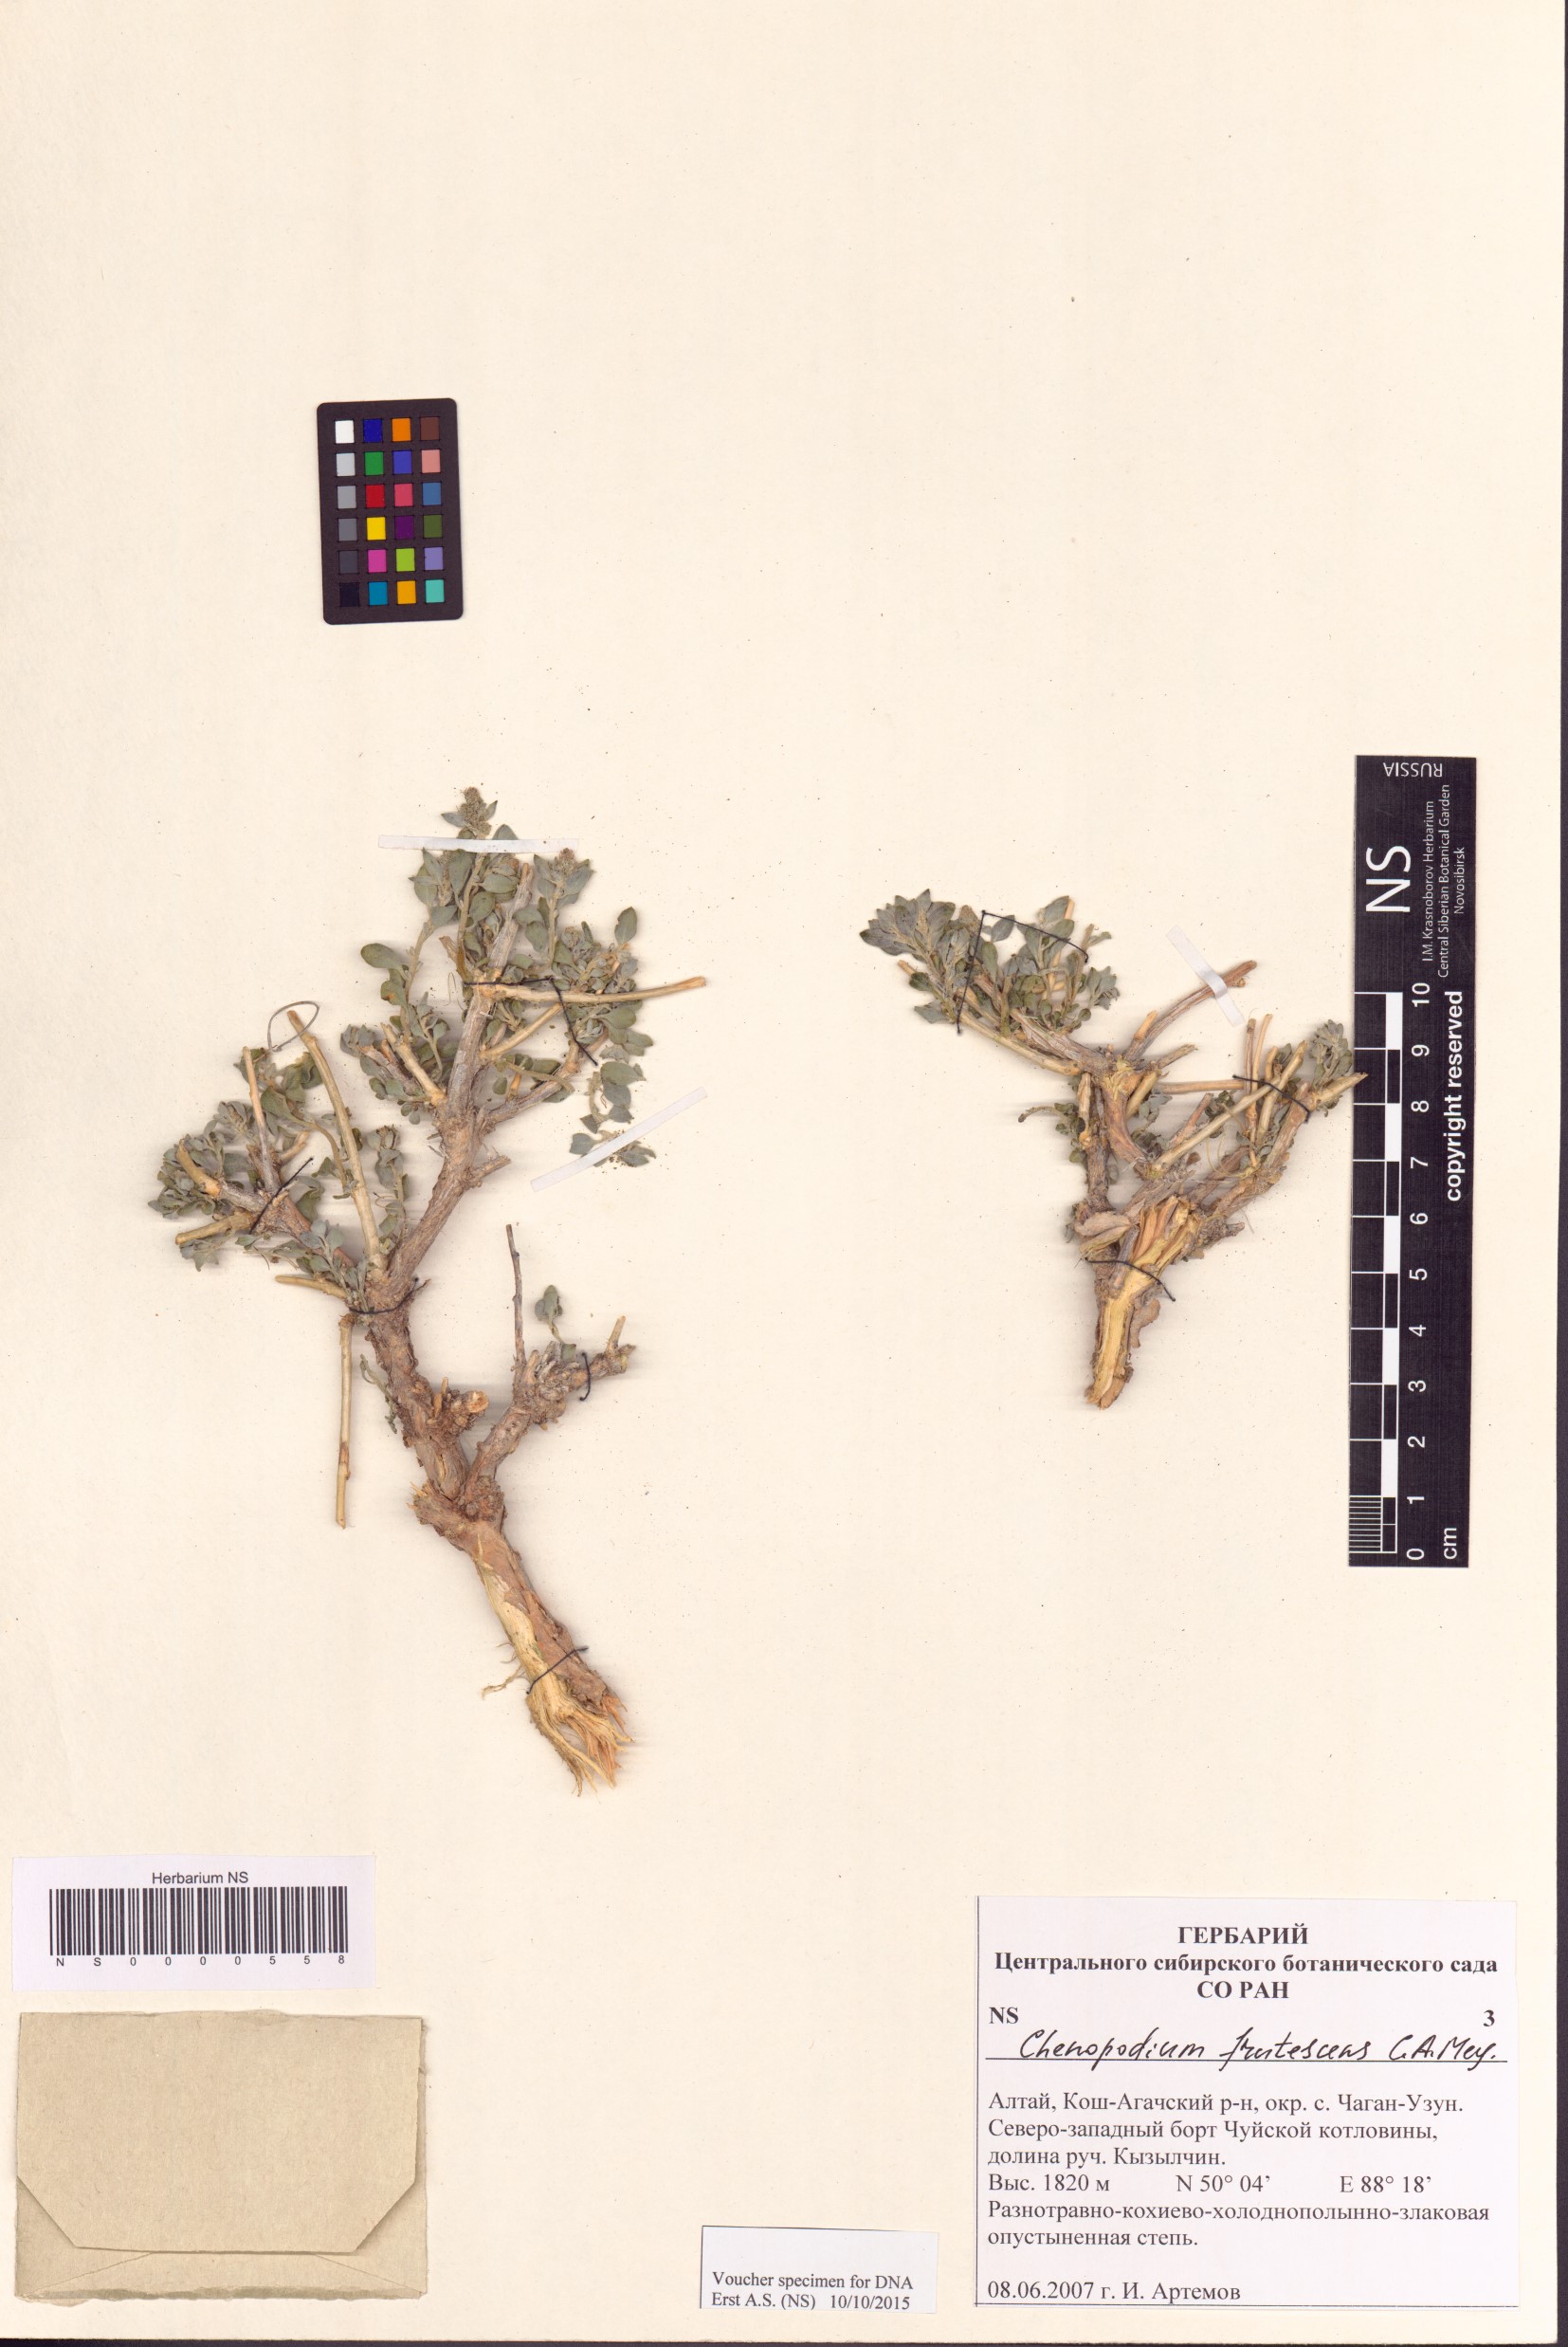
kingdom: Plantae
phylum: Tracheophyta
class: Magnoliopsida
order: Caryophyllales
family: Amaranthaceae
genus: Chenopodium
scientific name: Chenopodium frutescens
